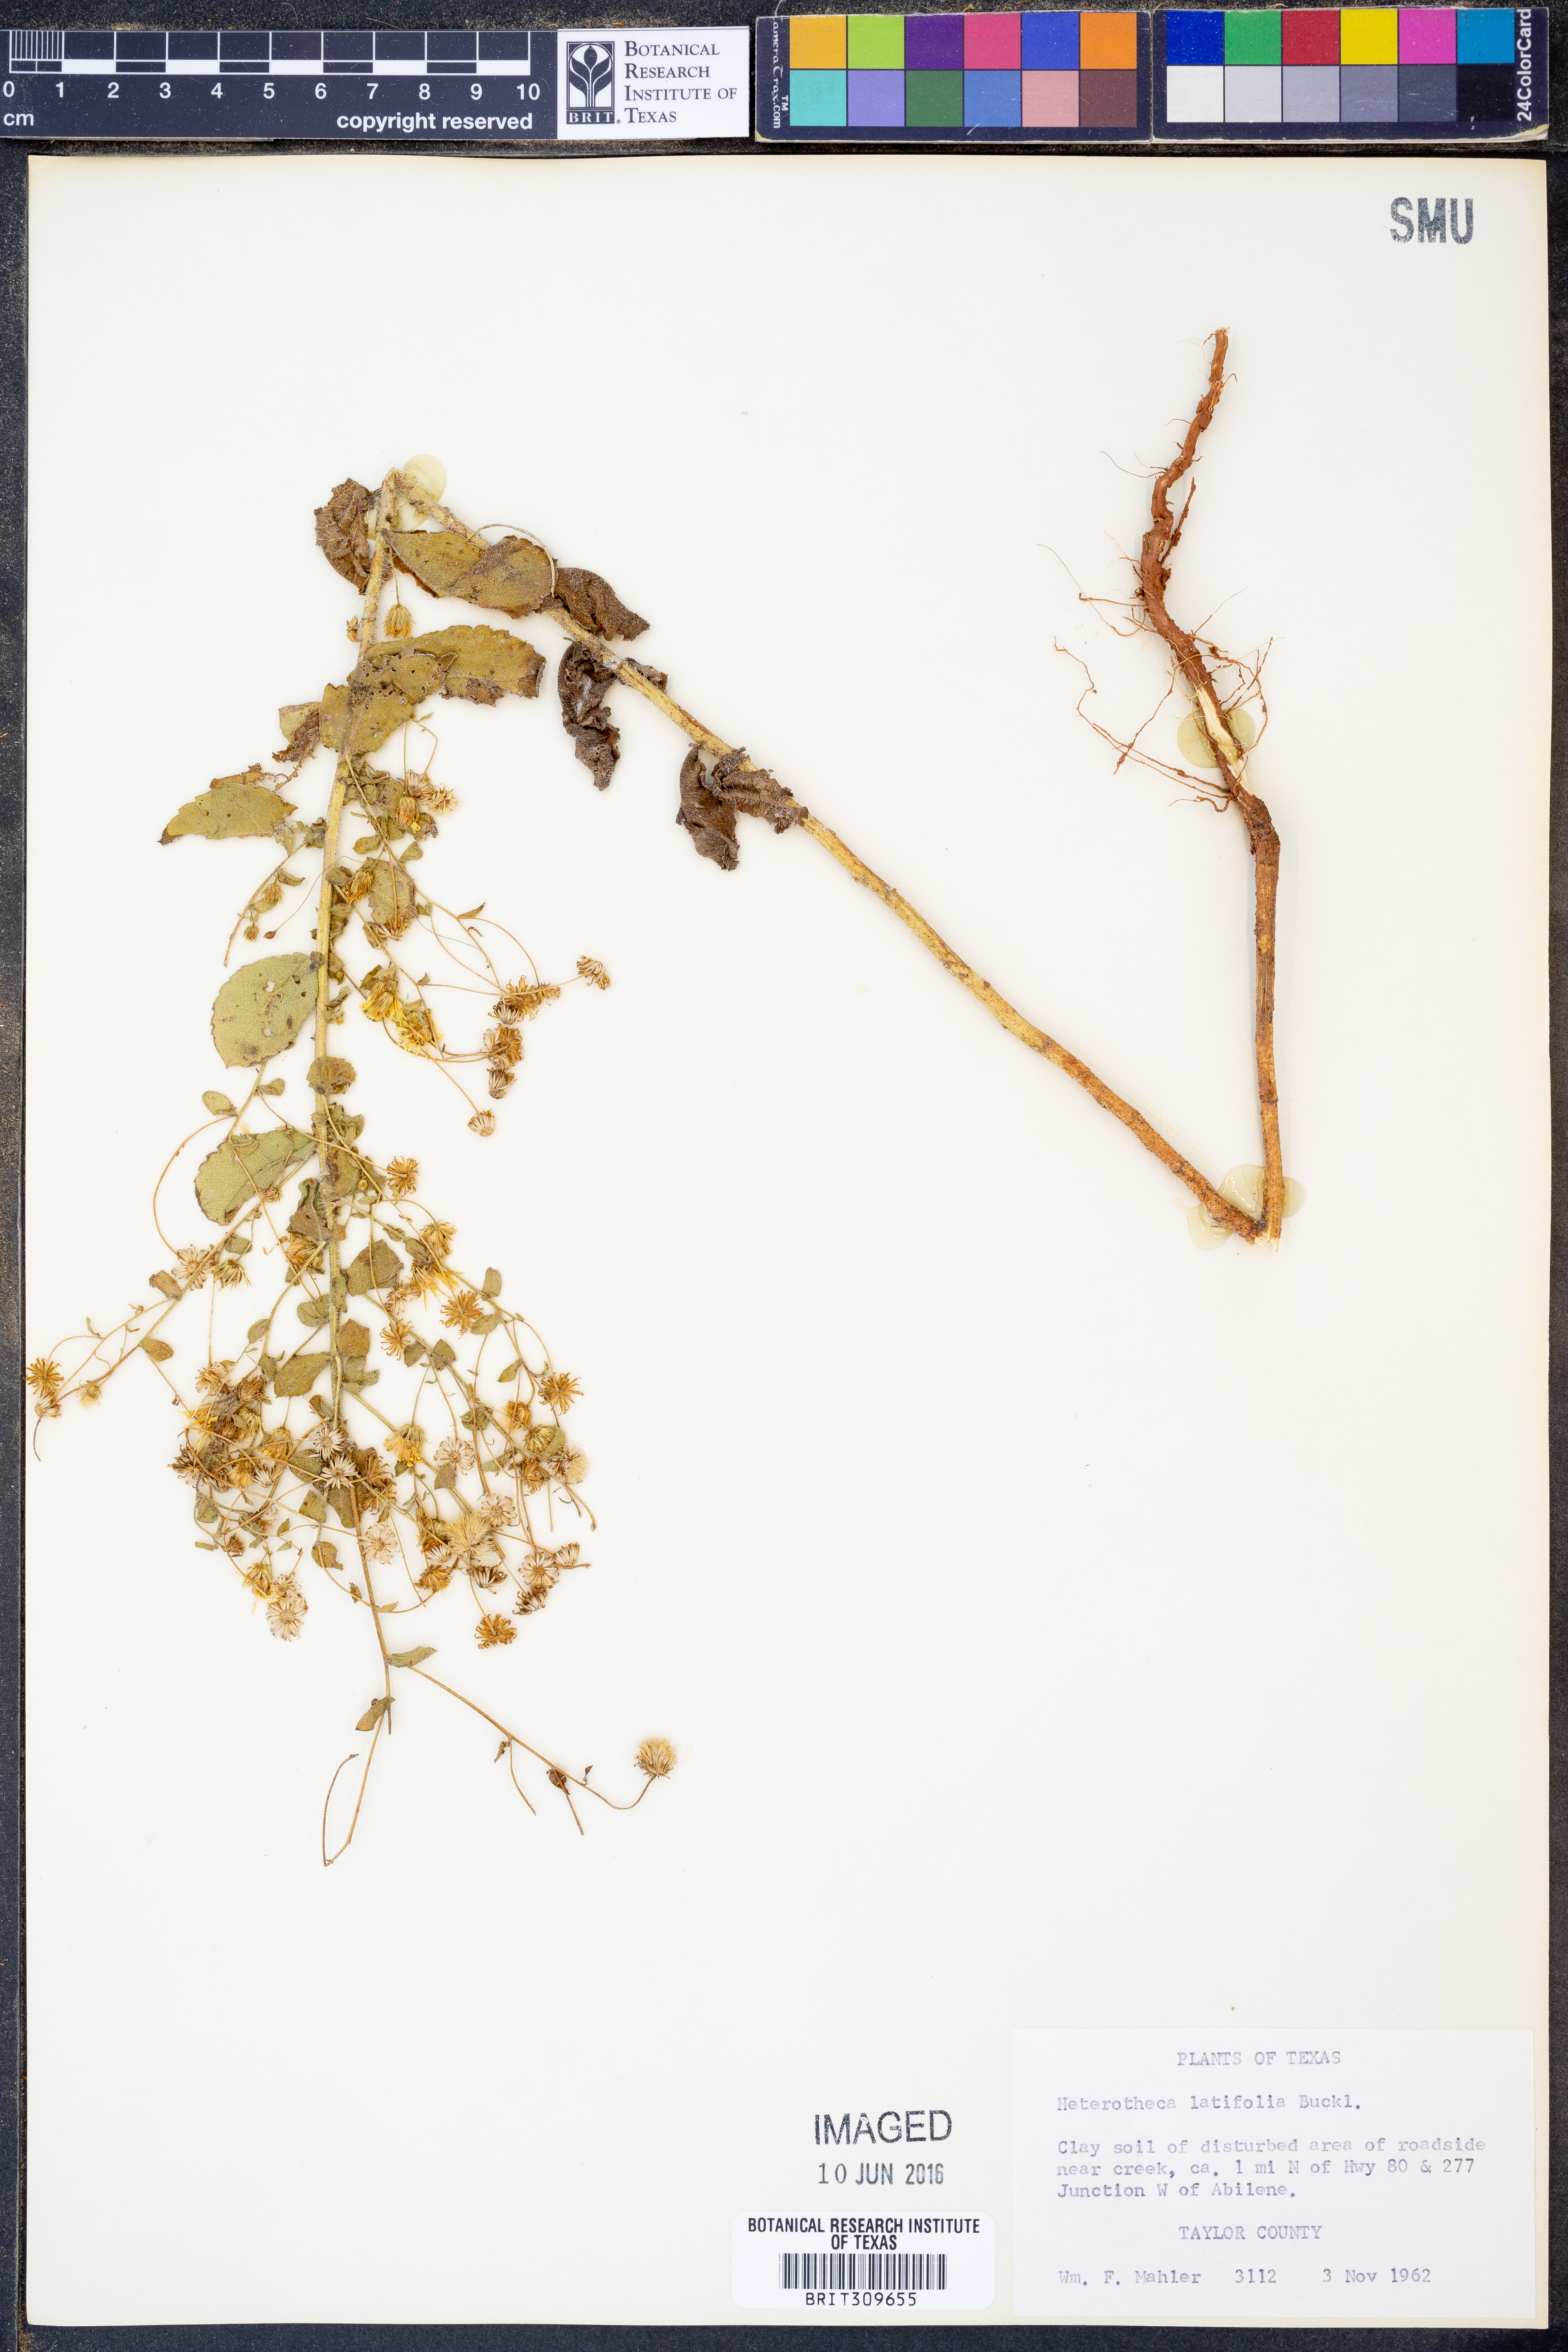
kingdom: Plantae
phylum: Tracheophyta
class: Magnoliopsida
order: Asterales
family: Asteraceae
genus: Heterotheca
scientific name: Heterotheca subaxillaris
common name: Camphorweed
